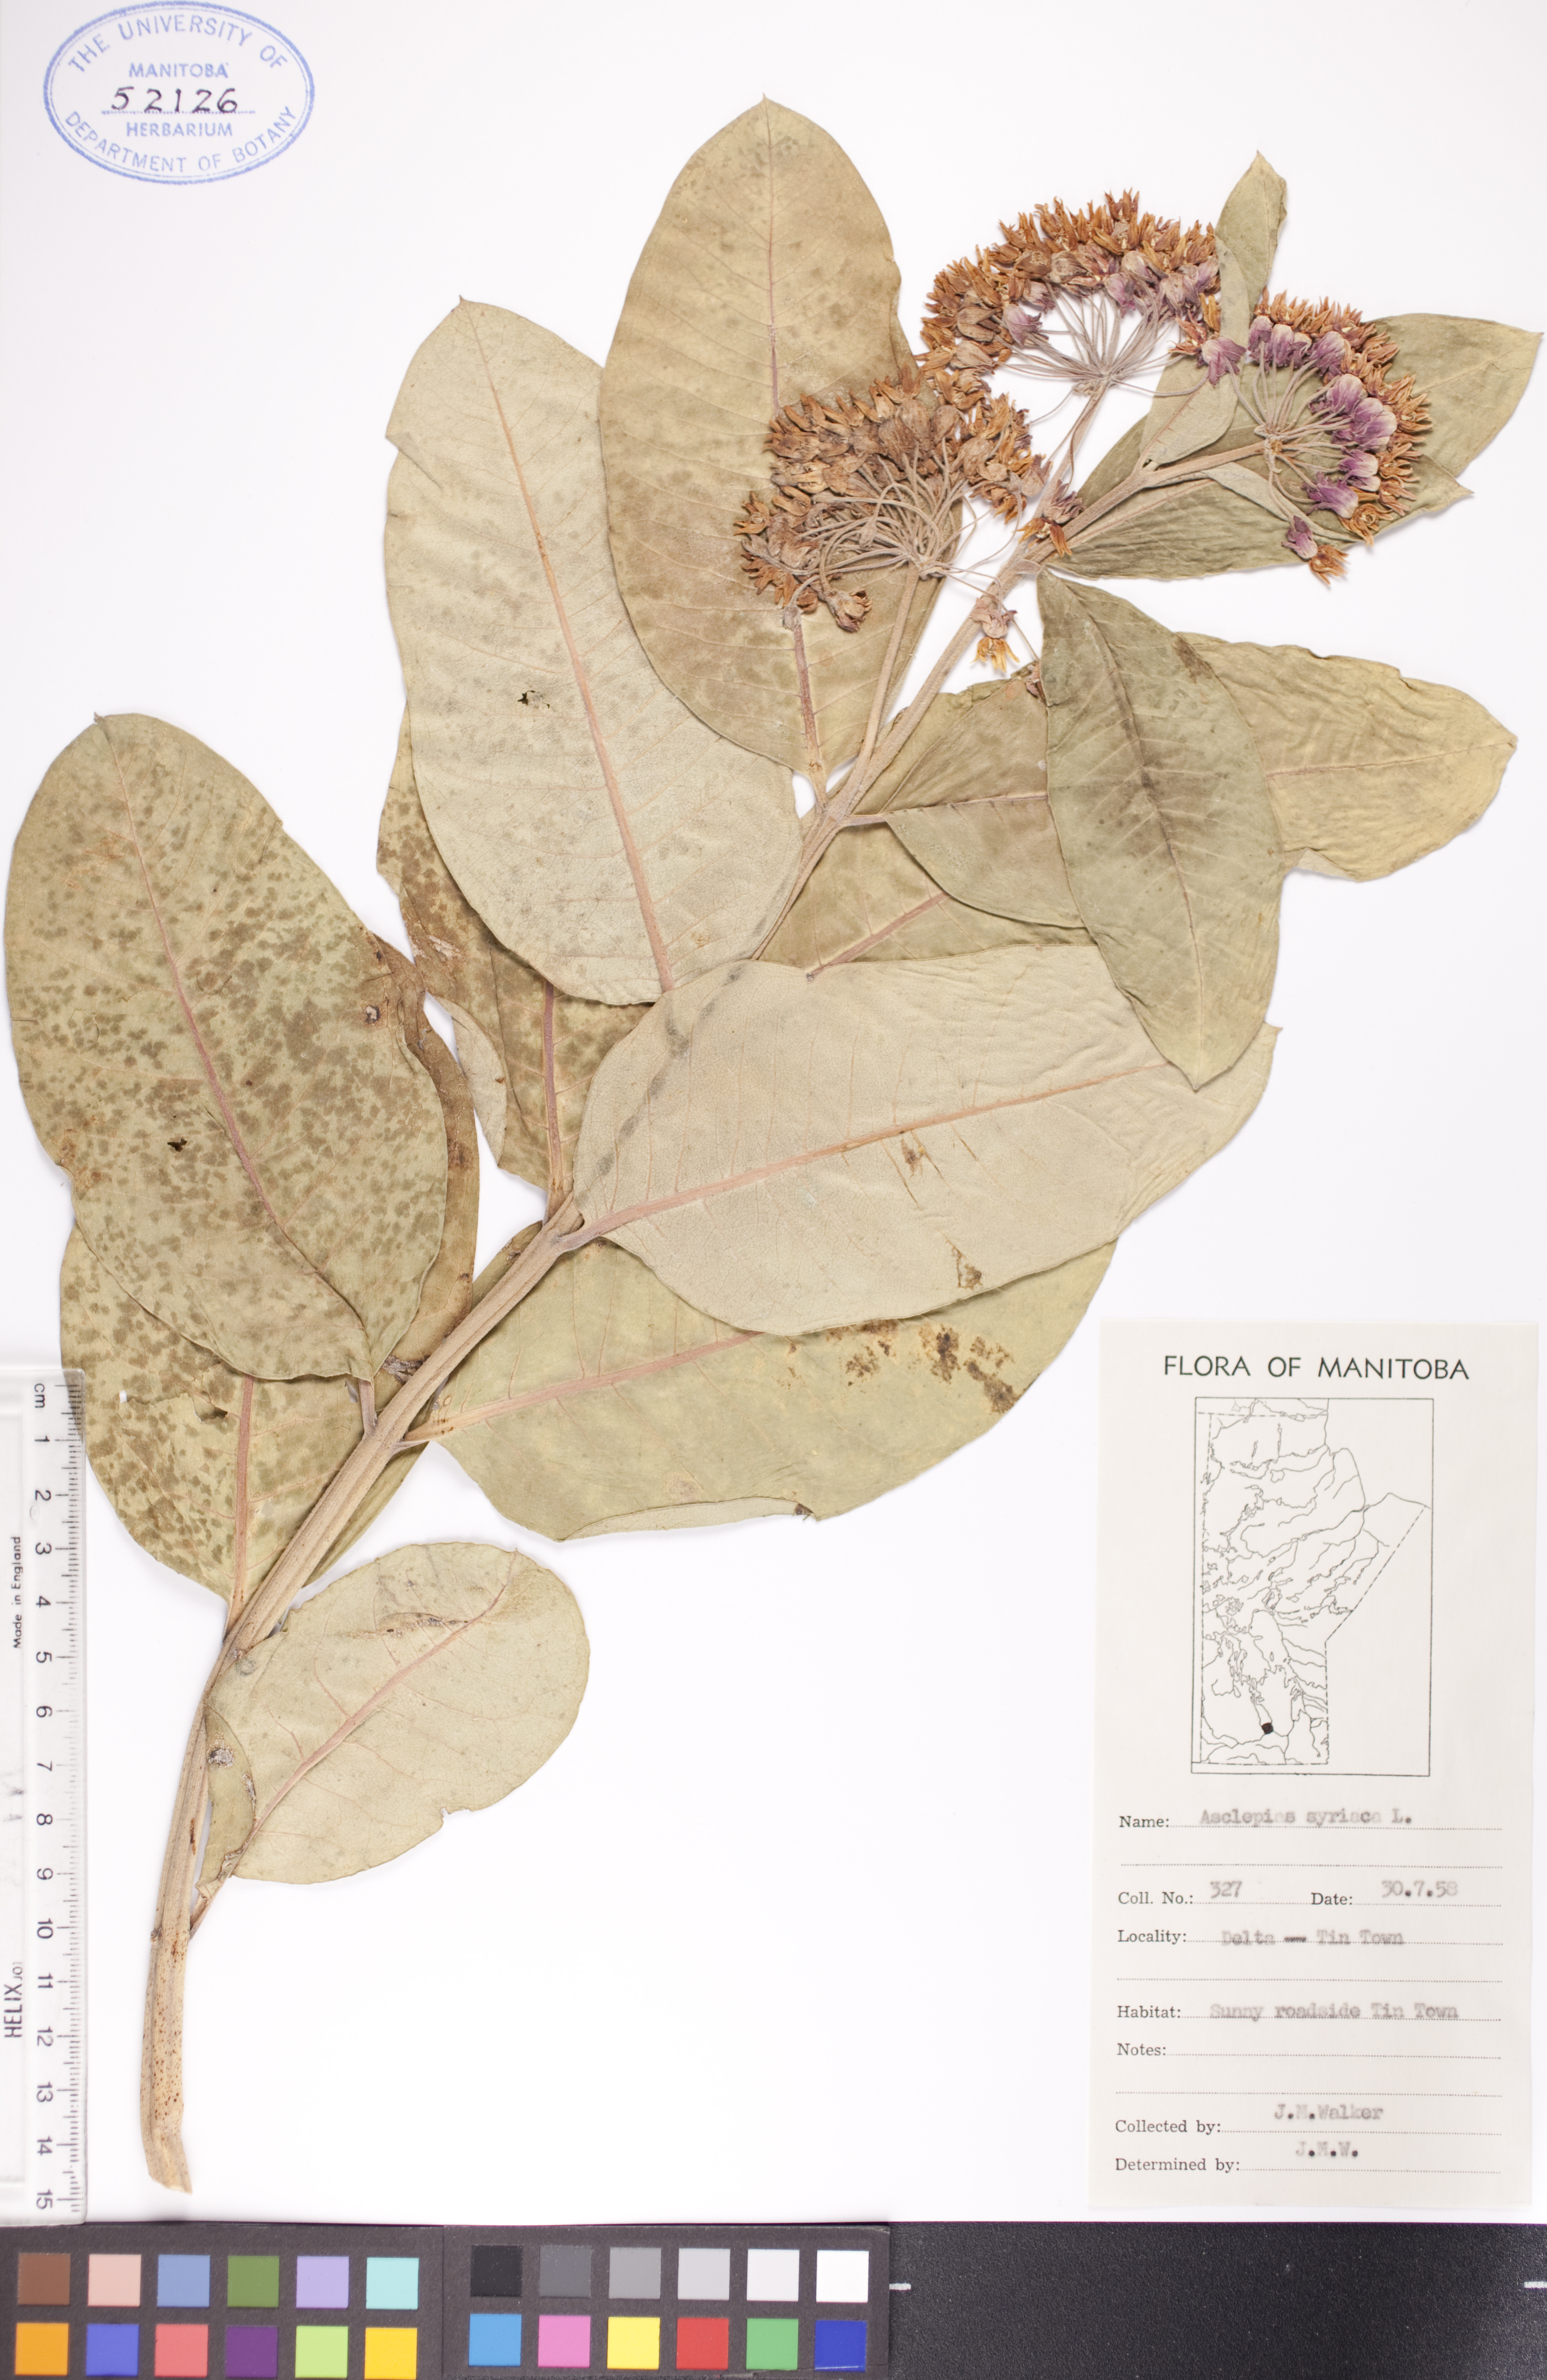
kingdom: Plantae
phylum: Tracheophyta
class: Magnoliopsida
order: Gentianales
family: Apocynaceae
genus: Asclepias
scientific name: Asclepias syriaca
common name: Common milkweed
